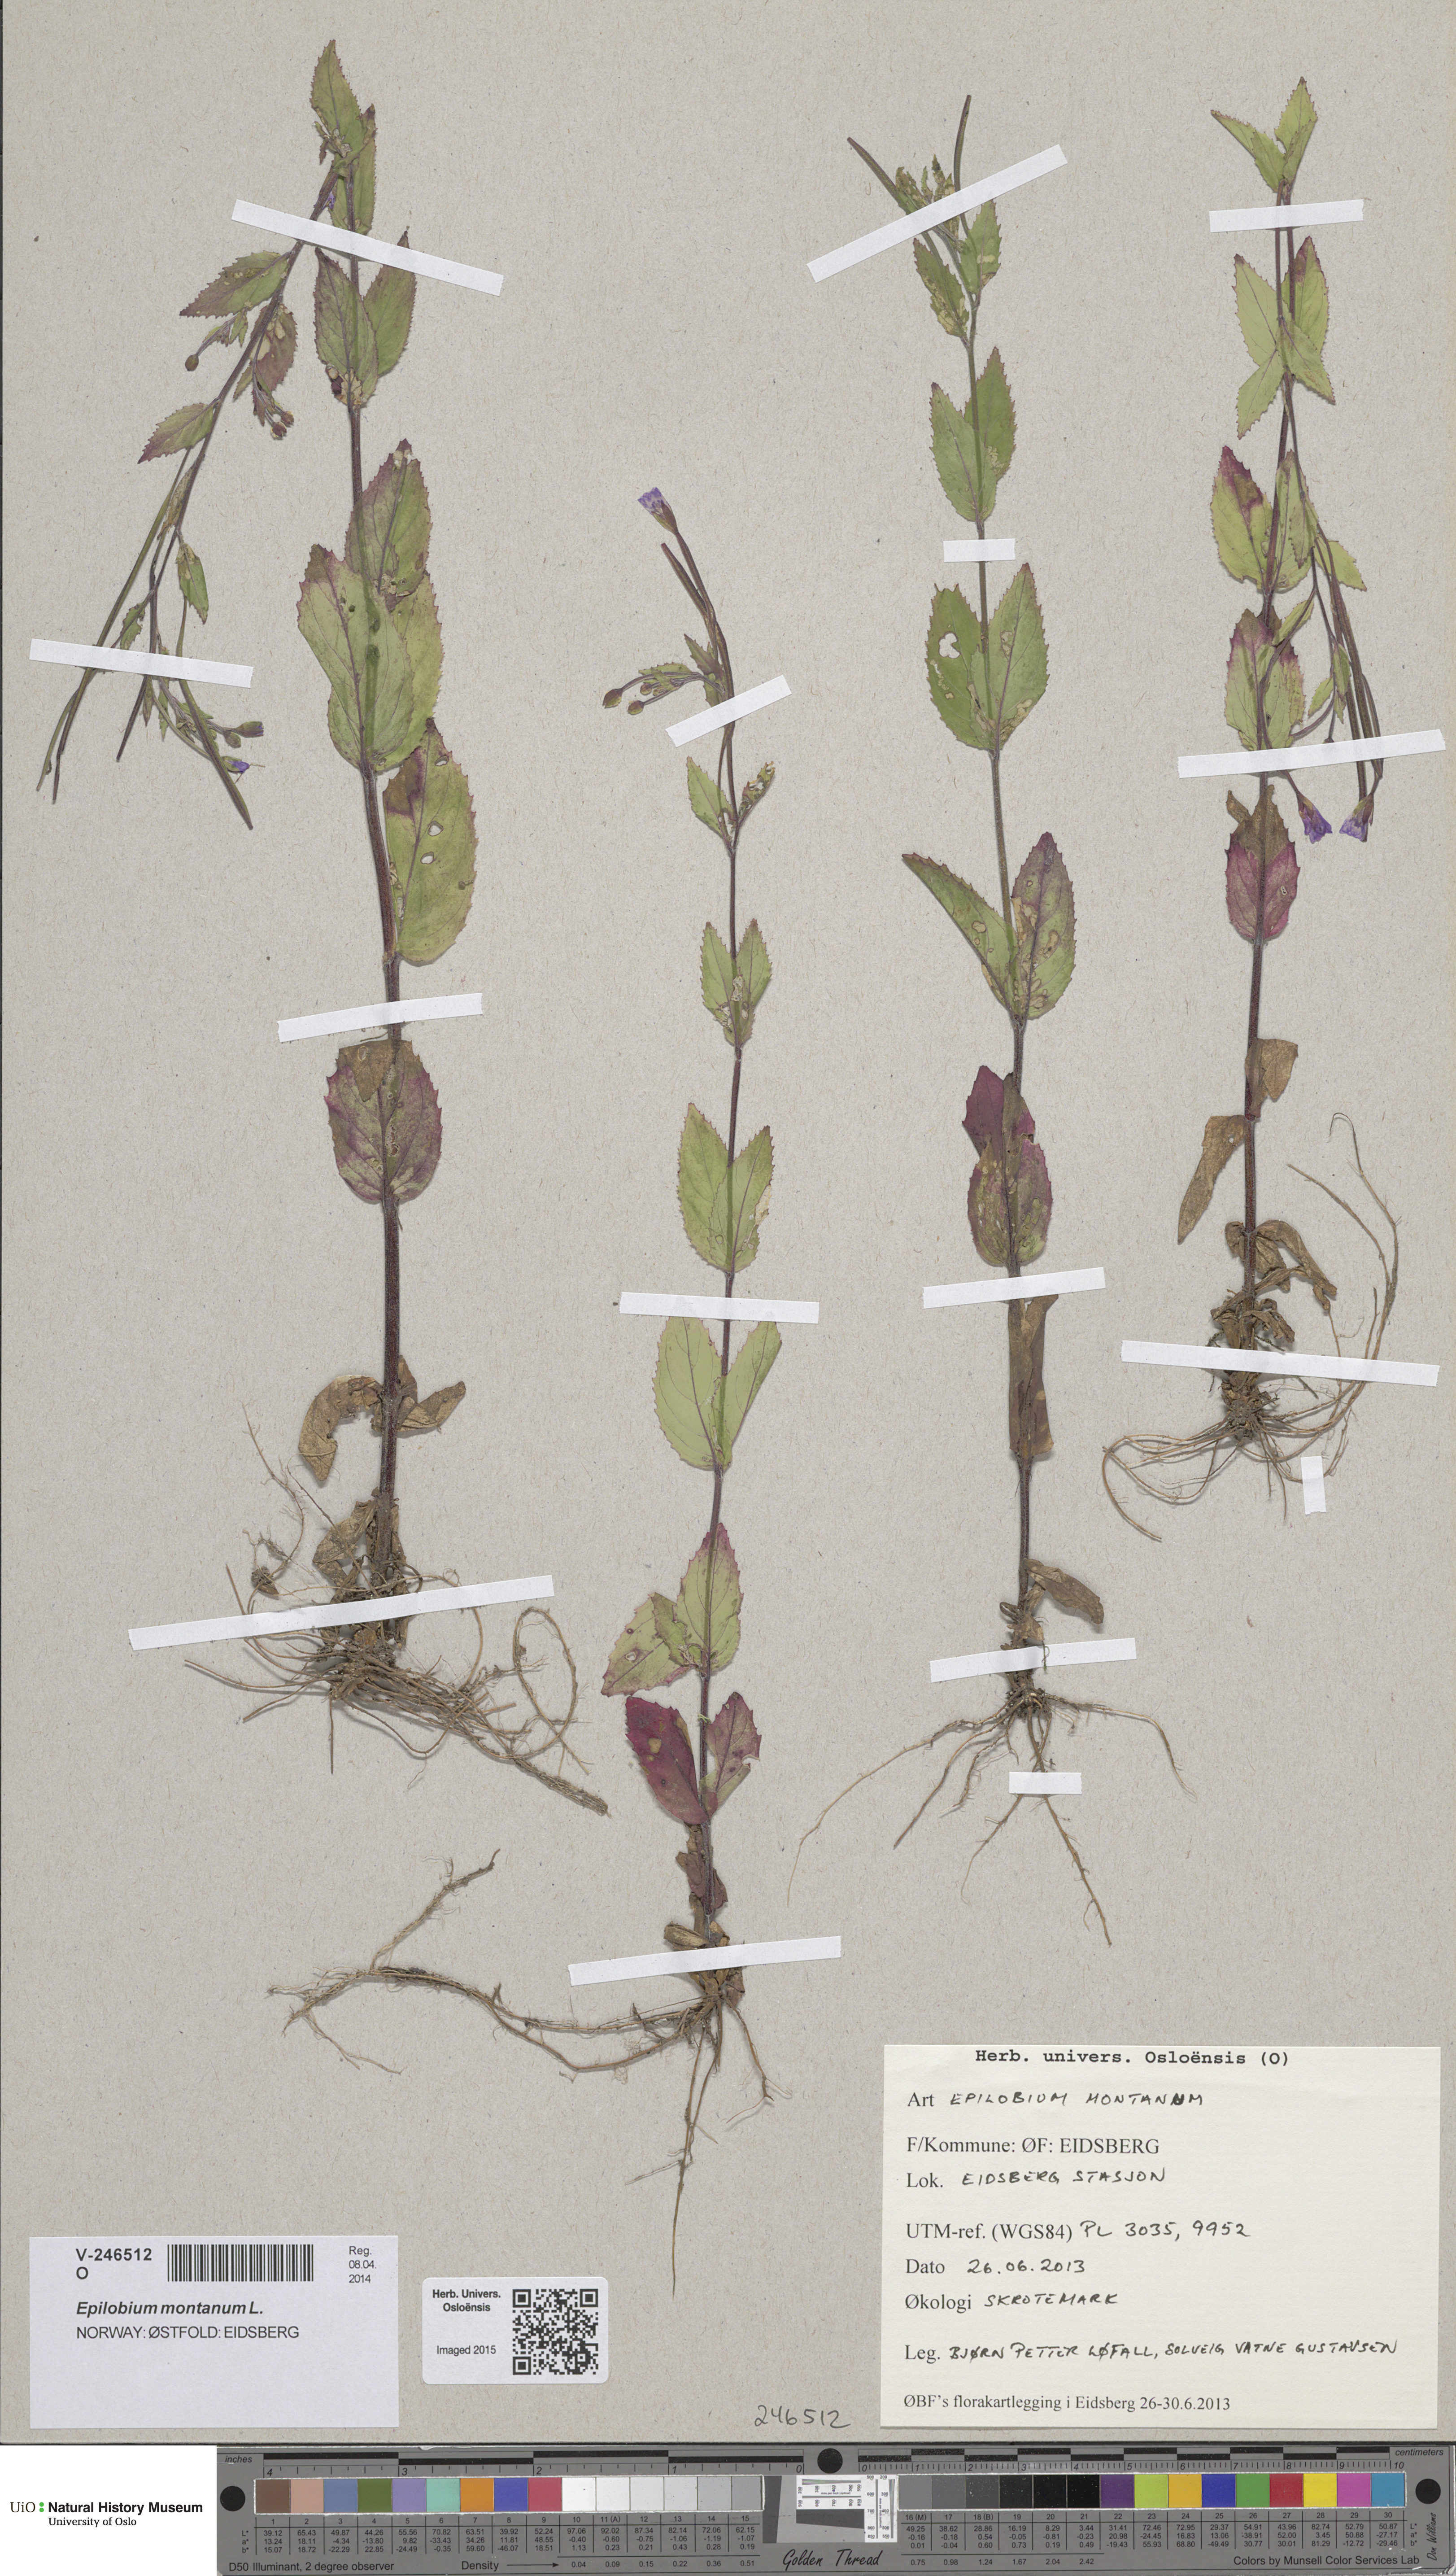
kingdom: Plantae
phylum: Tracheophyta
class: Magnoliopsida
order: Myrtales
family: Onagraceae
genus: Epilobium
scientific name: Epilobium montanum
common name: Broad-leaved willowherb
